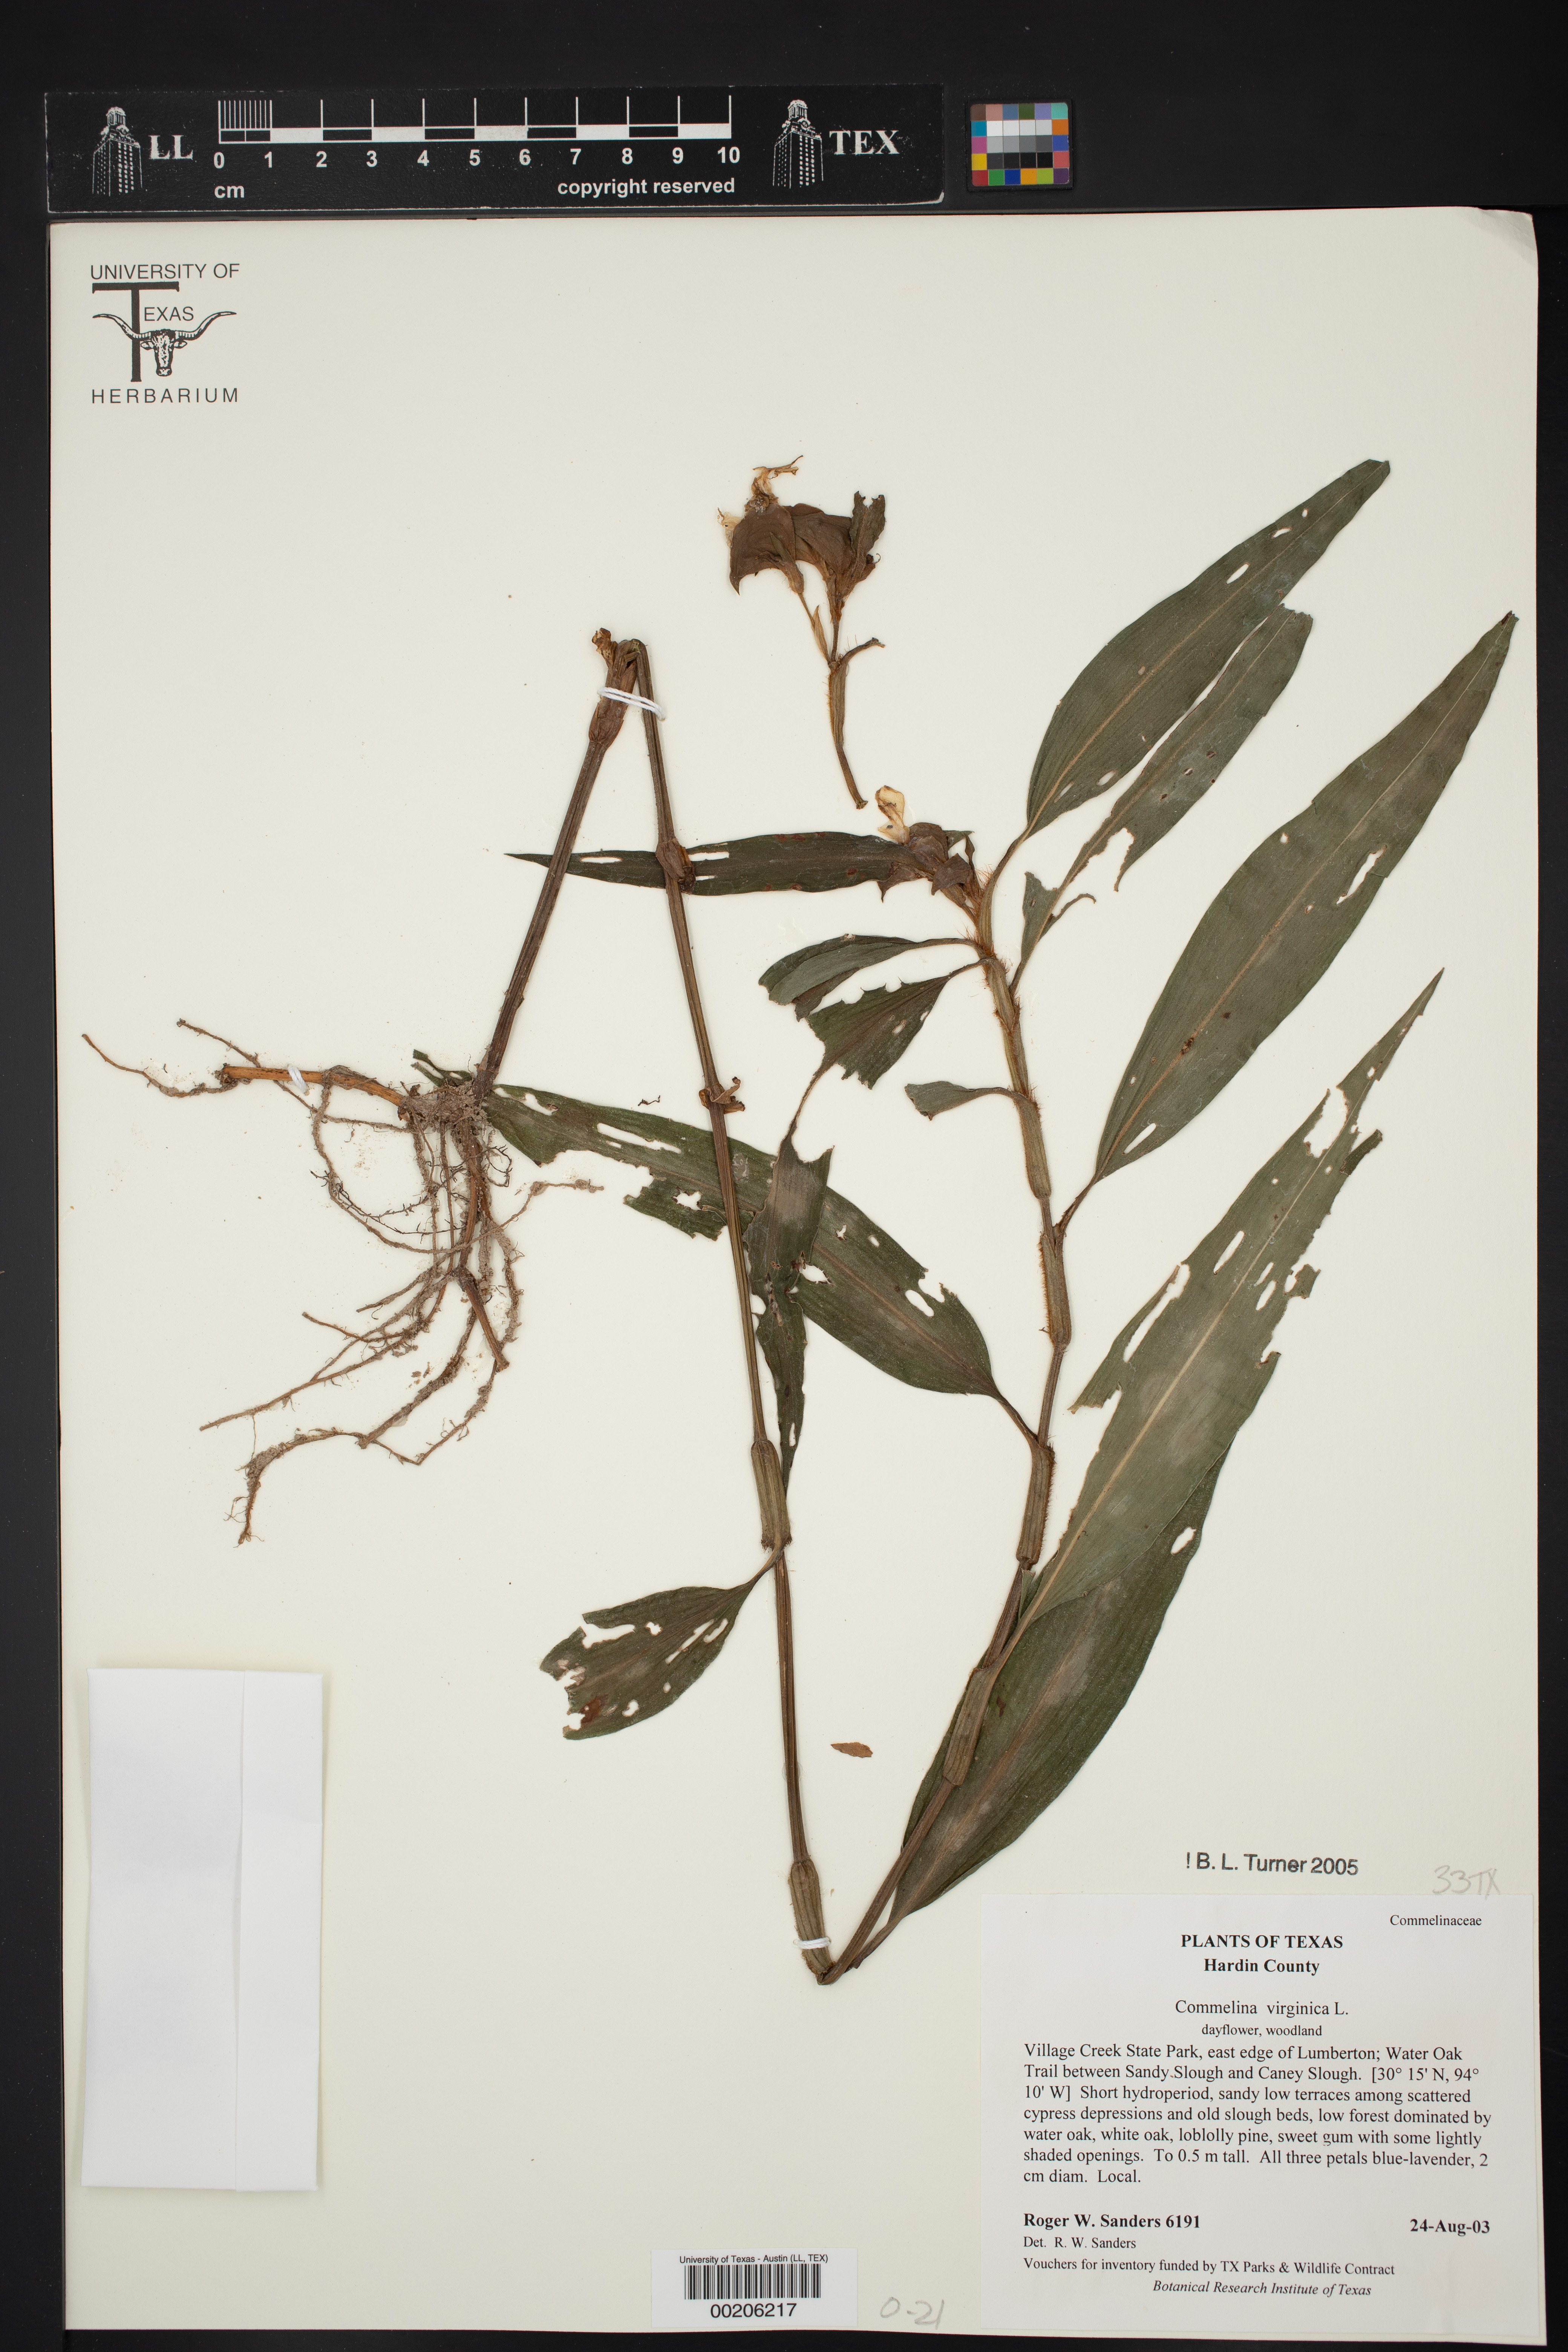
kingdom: Plantae
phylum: Tracheophyta
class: Liliopsida
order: Commelinales
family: Commelinaceae
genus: Commelina
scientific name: Commelina virginica
